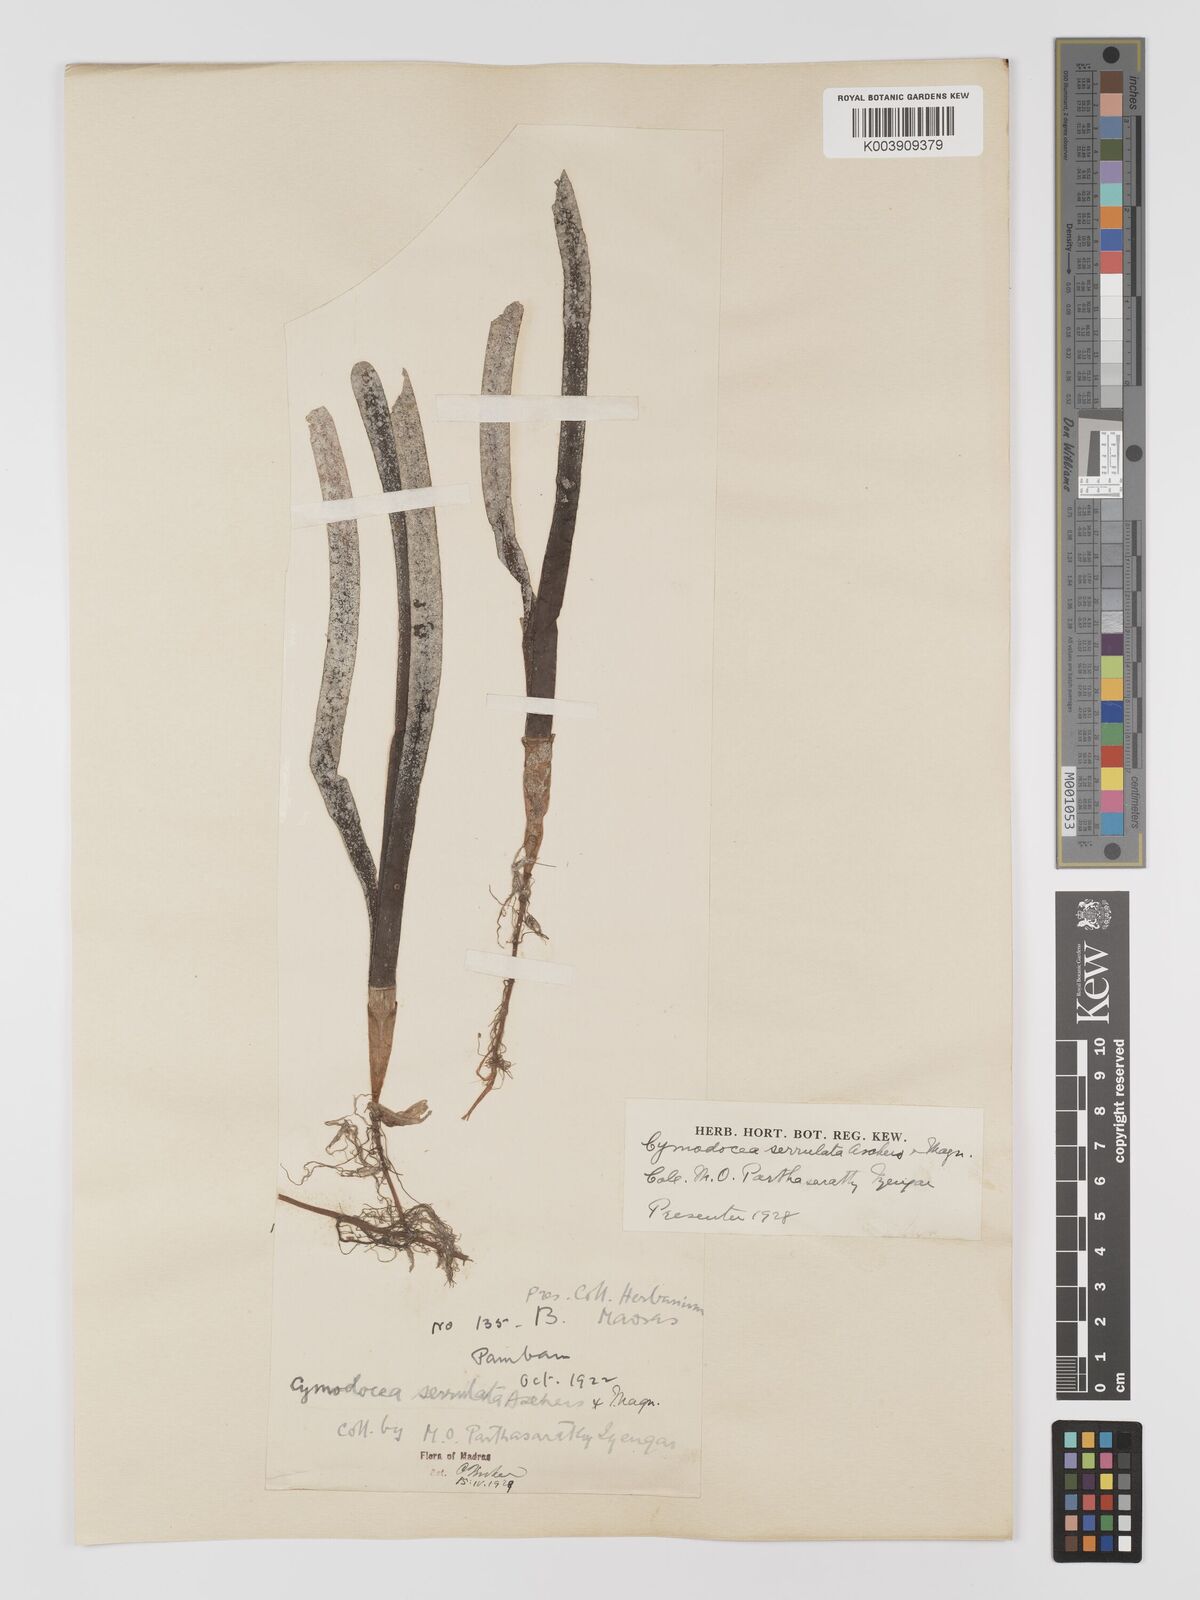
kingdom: Plantae
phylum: Tracheophyta
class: Liliopsida
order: Alismatales
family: Cymodoceaceae
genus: Oceana
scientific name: Oceana serrulata
